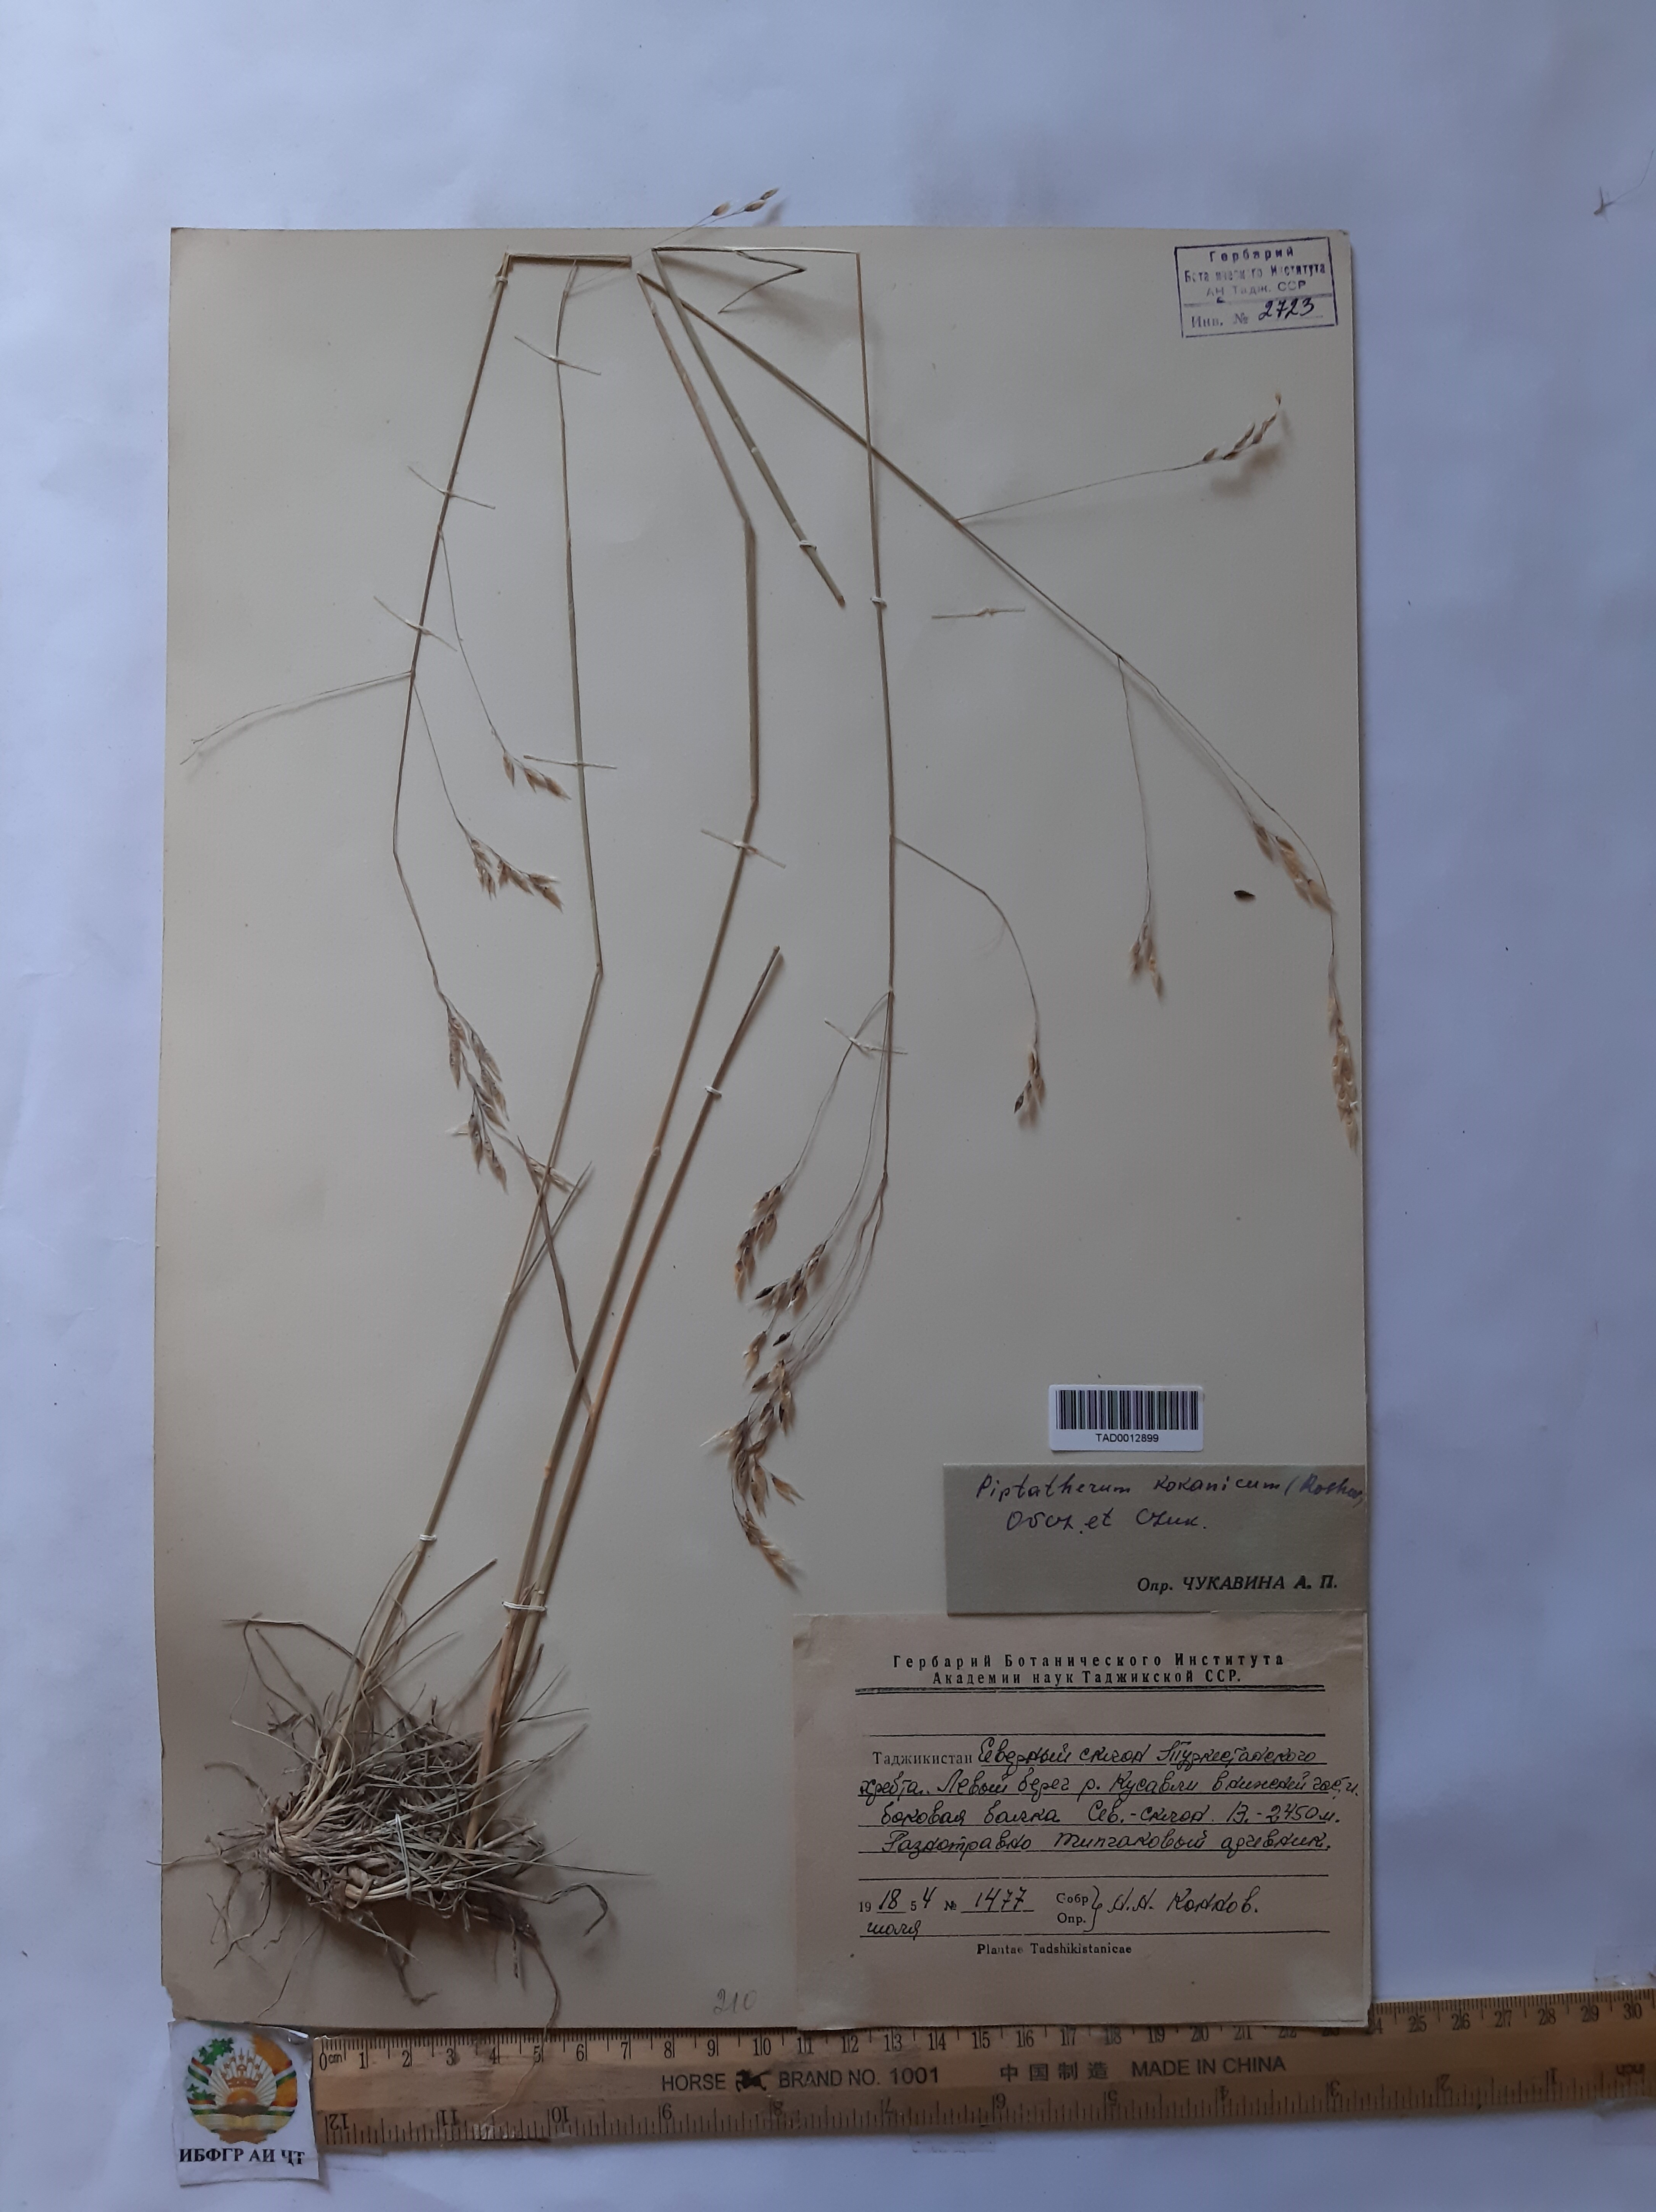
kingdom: Plantae
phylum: Tracheophyta
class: Liliopsida
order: Poales
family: Poaceae
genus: Piptatherum
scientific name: Piptatherum songaricum
